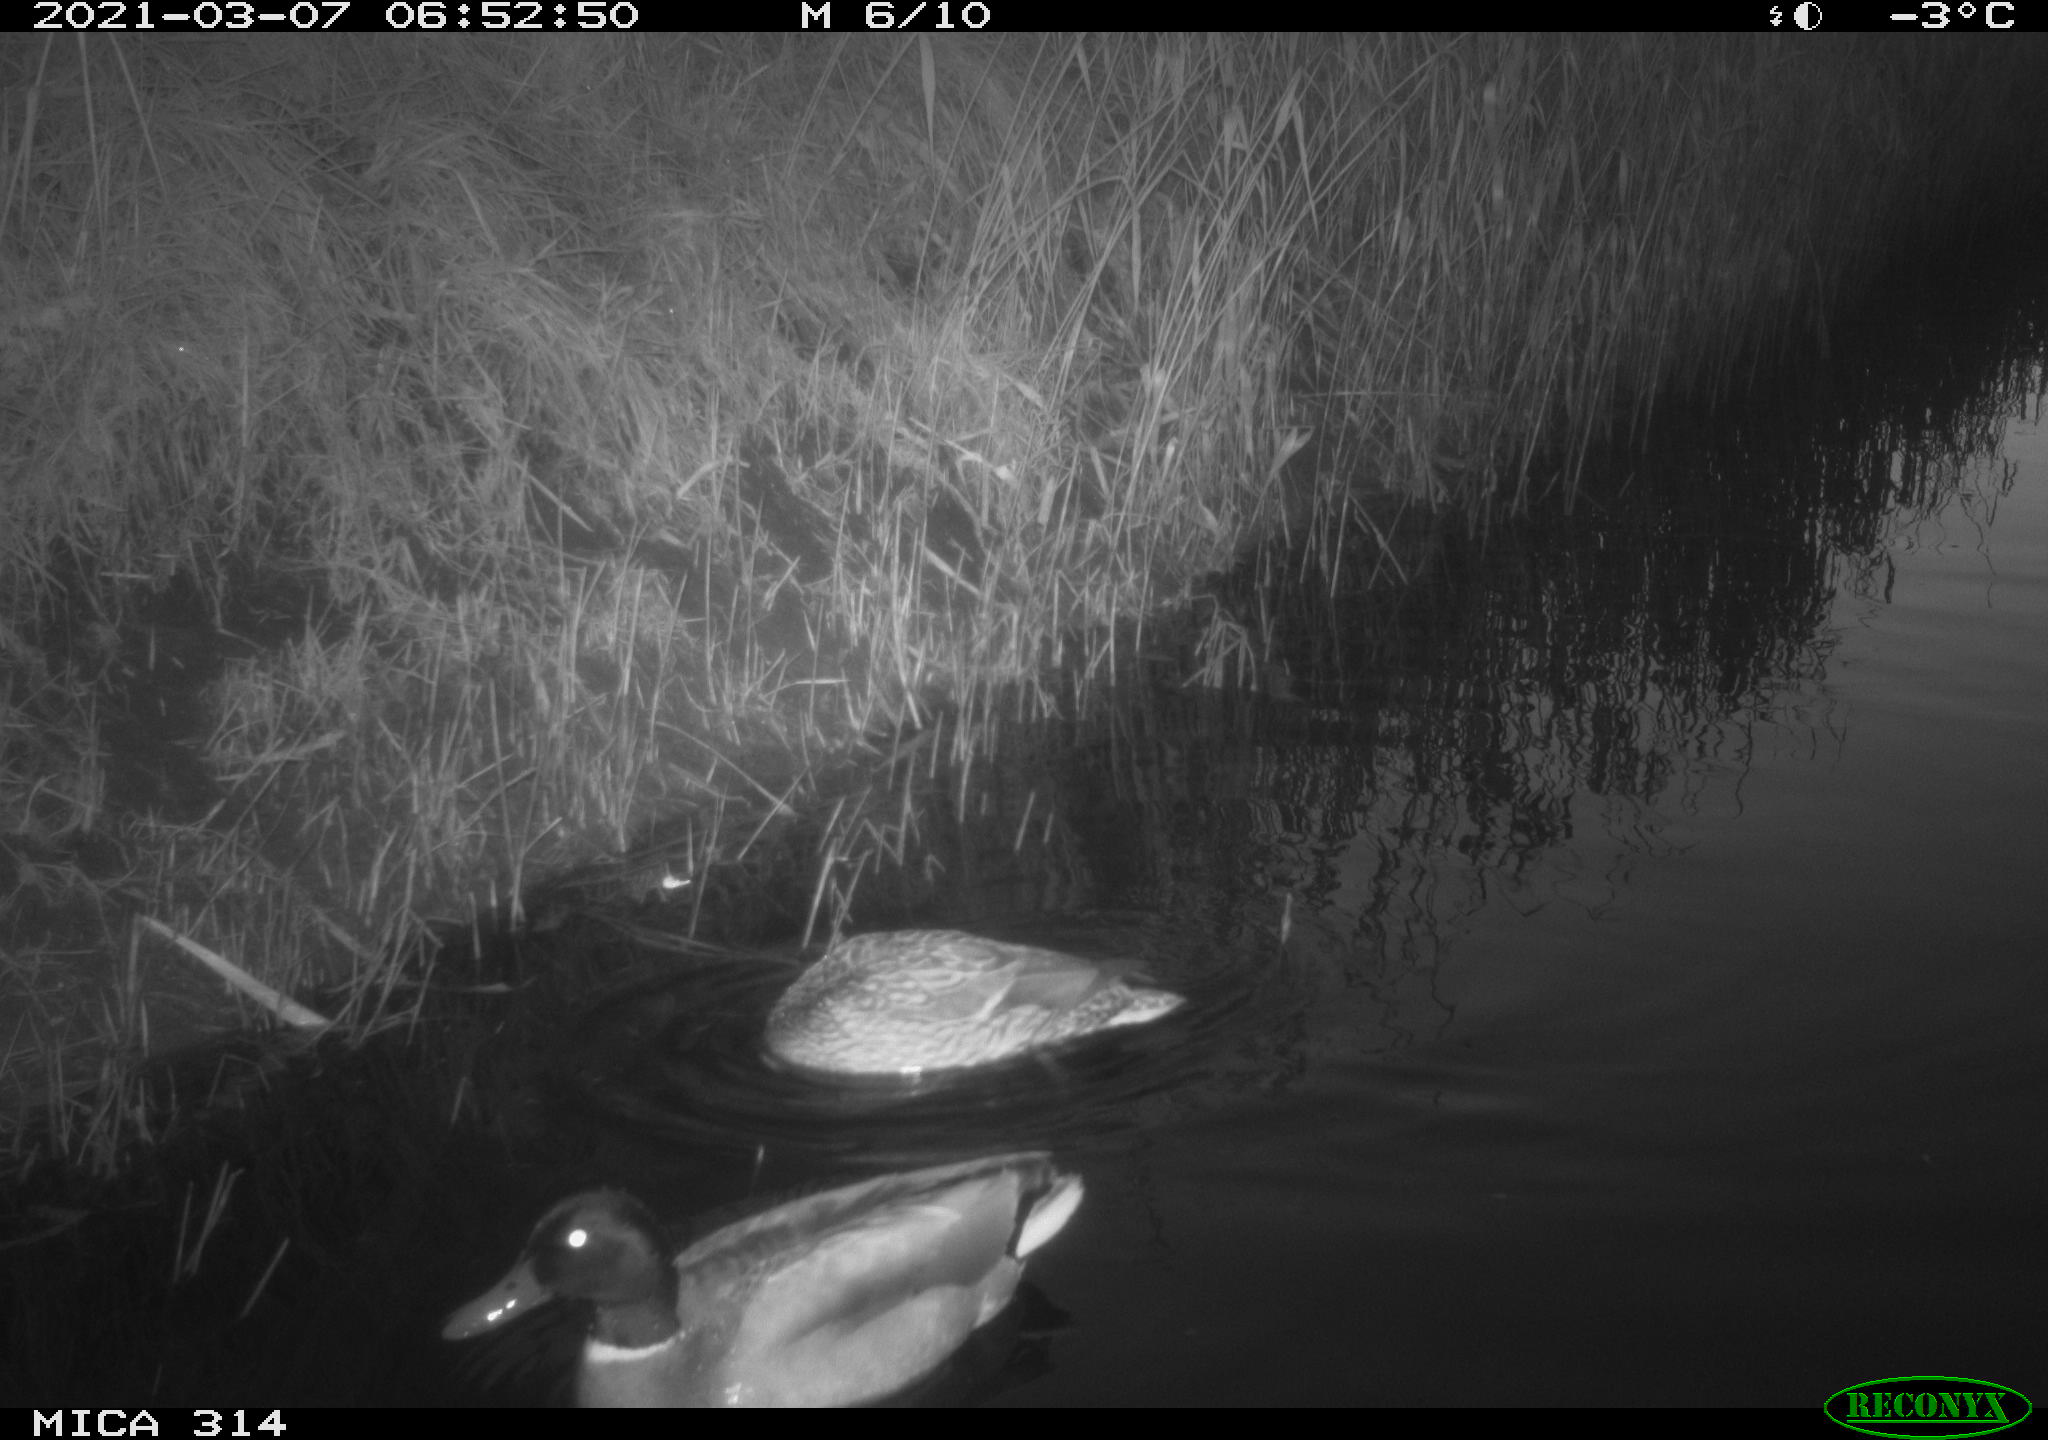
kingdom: Animalia
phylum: Chordata
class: Aves
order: Anseriformes
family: Anatidae
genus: Anas
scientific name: Anas platyrhynchos
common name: Mallard
